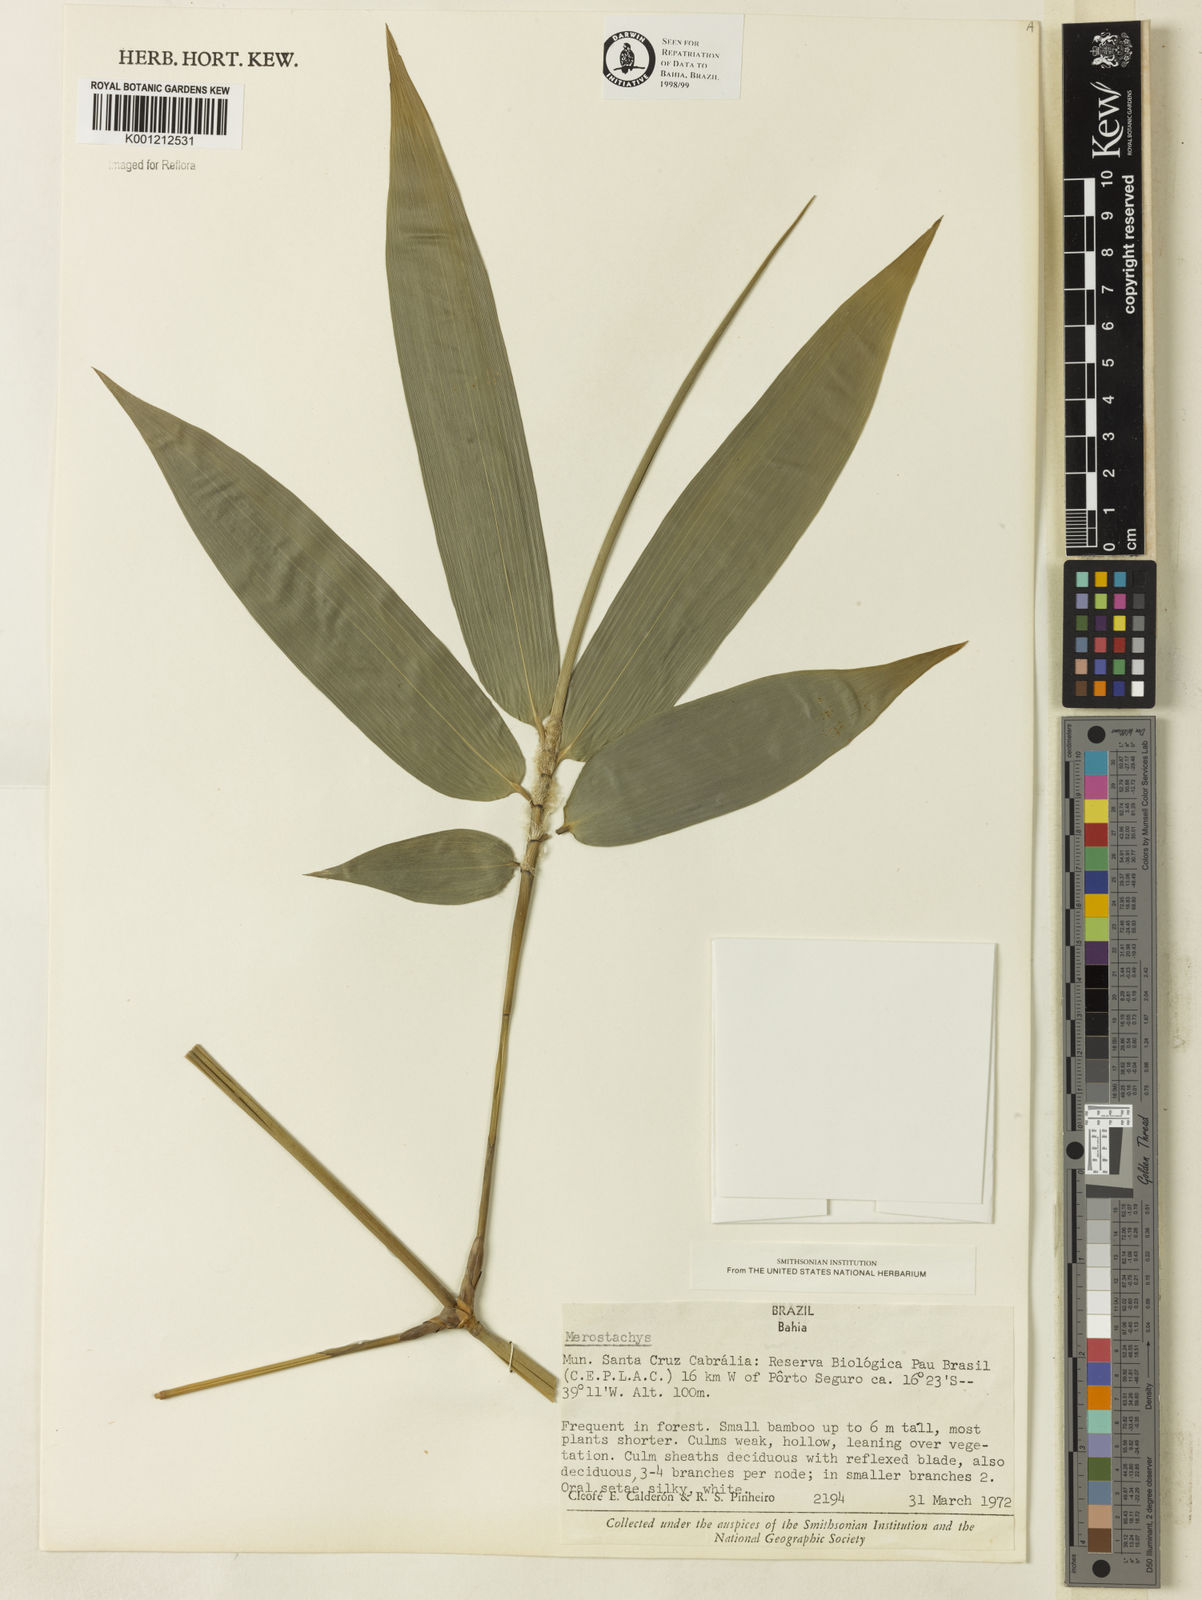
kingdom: Plantae
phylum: Tracheophyta
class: Liliopsida
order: Poales
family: Poaceae
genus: Merostachys
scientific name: Merostachys procerrima
